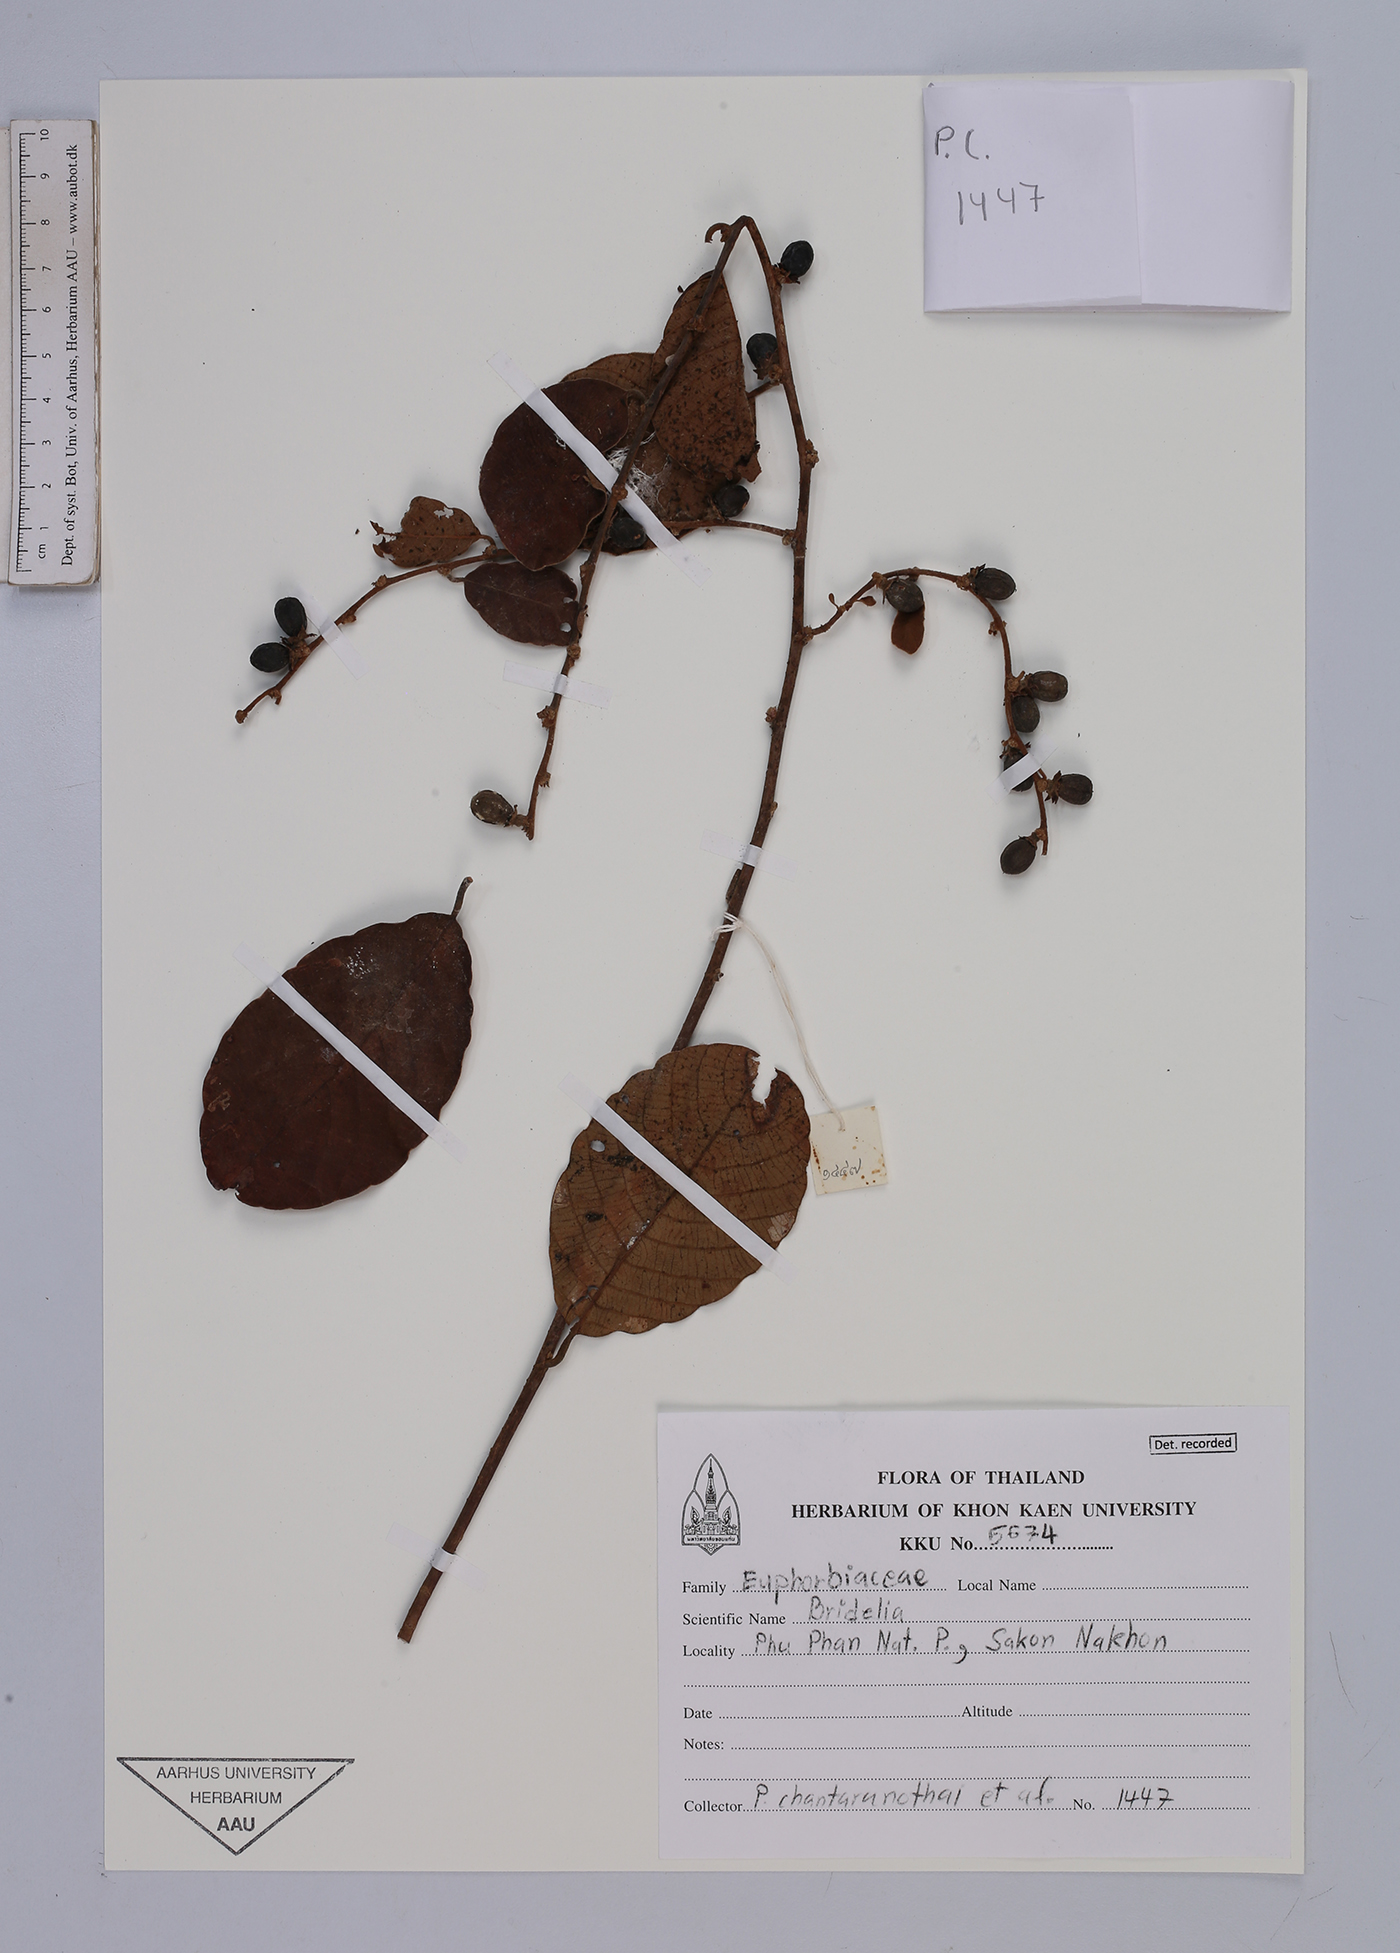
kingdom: Plantae
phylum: Tracheophyta
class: Magnoliopsida
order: Malpighiales
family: Euphorbiaceae
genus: Bridelia
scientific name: Bridelia
